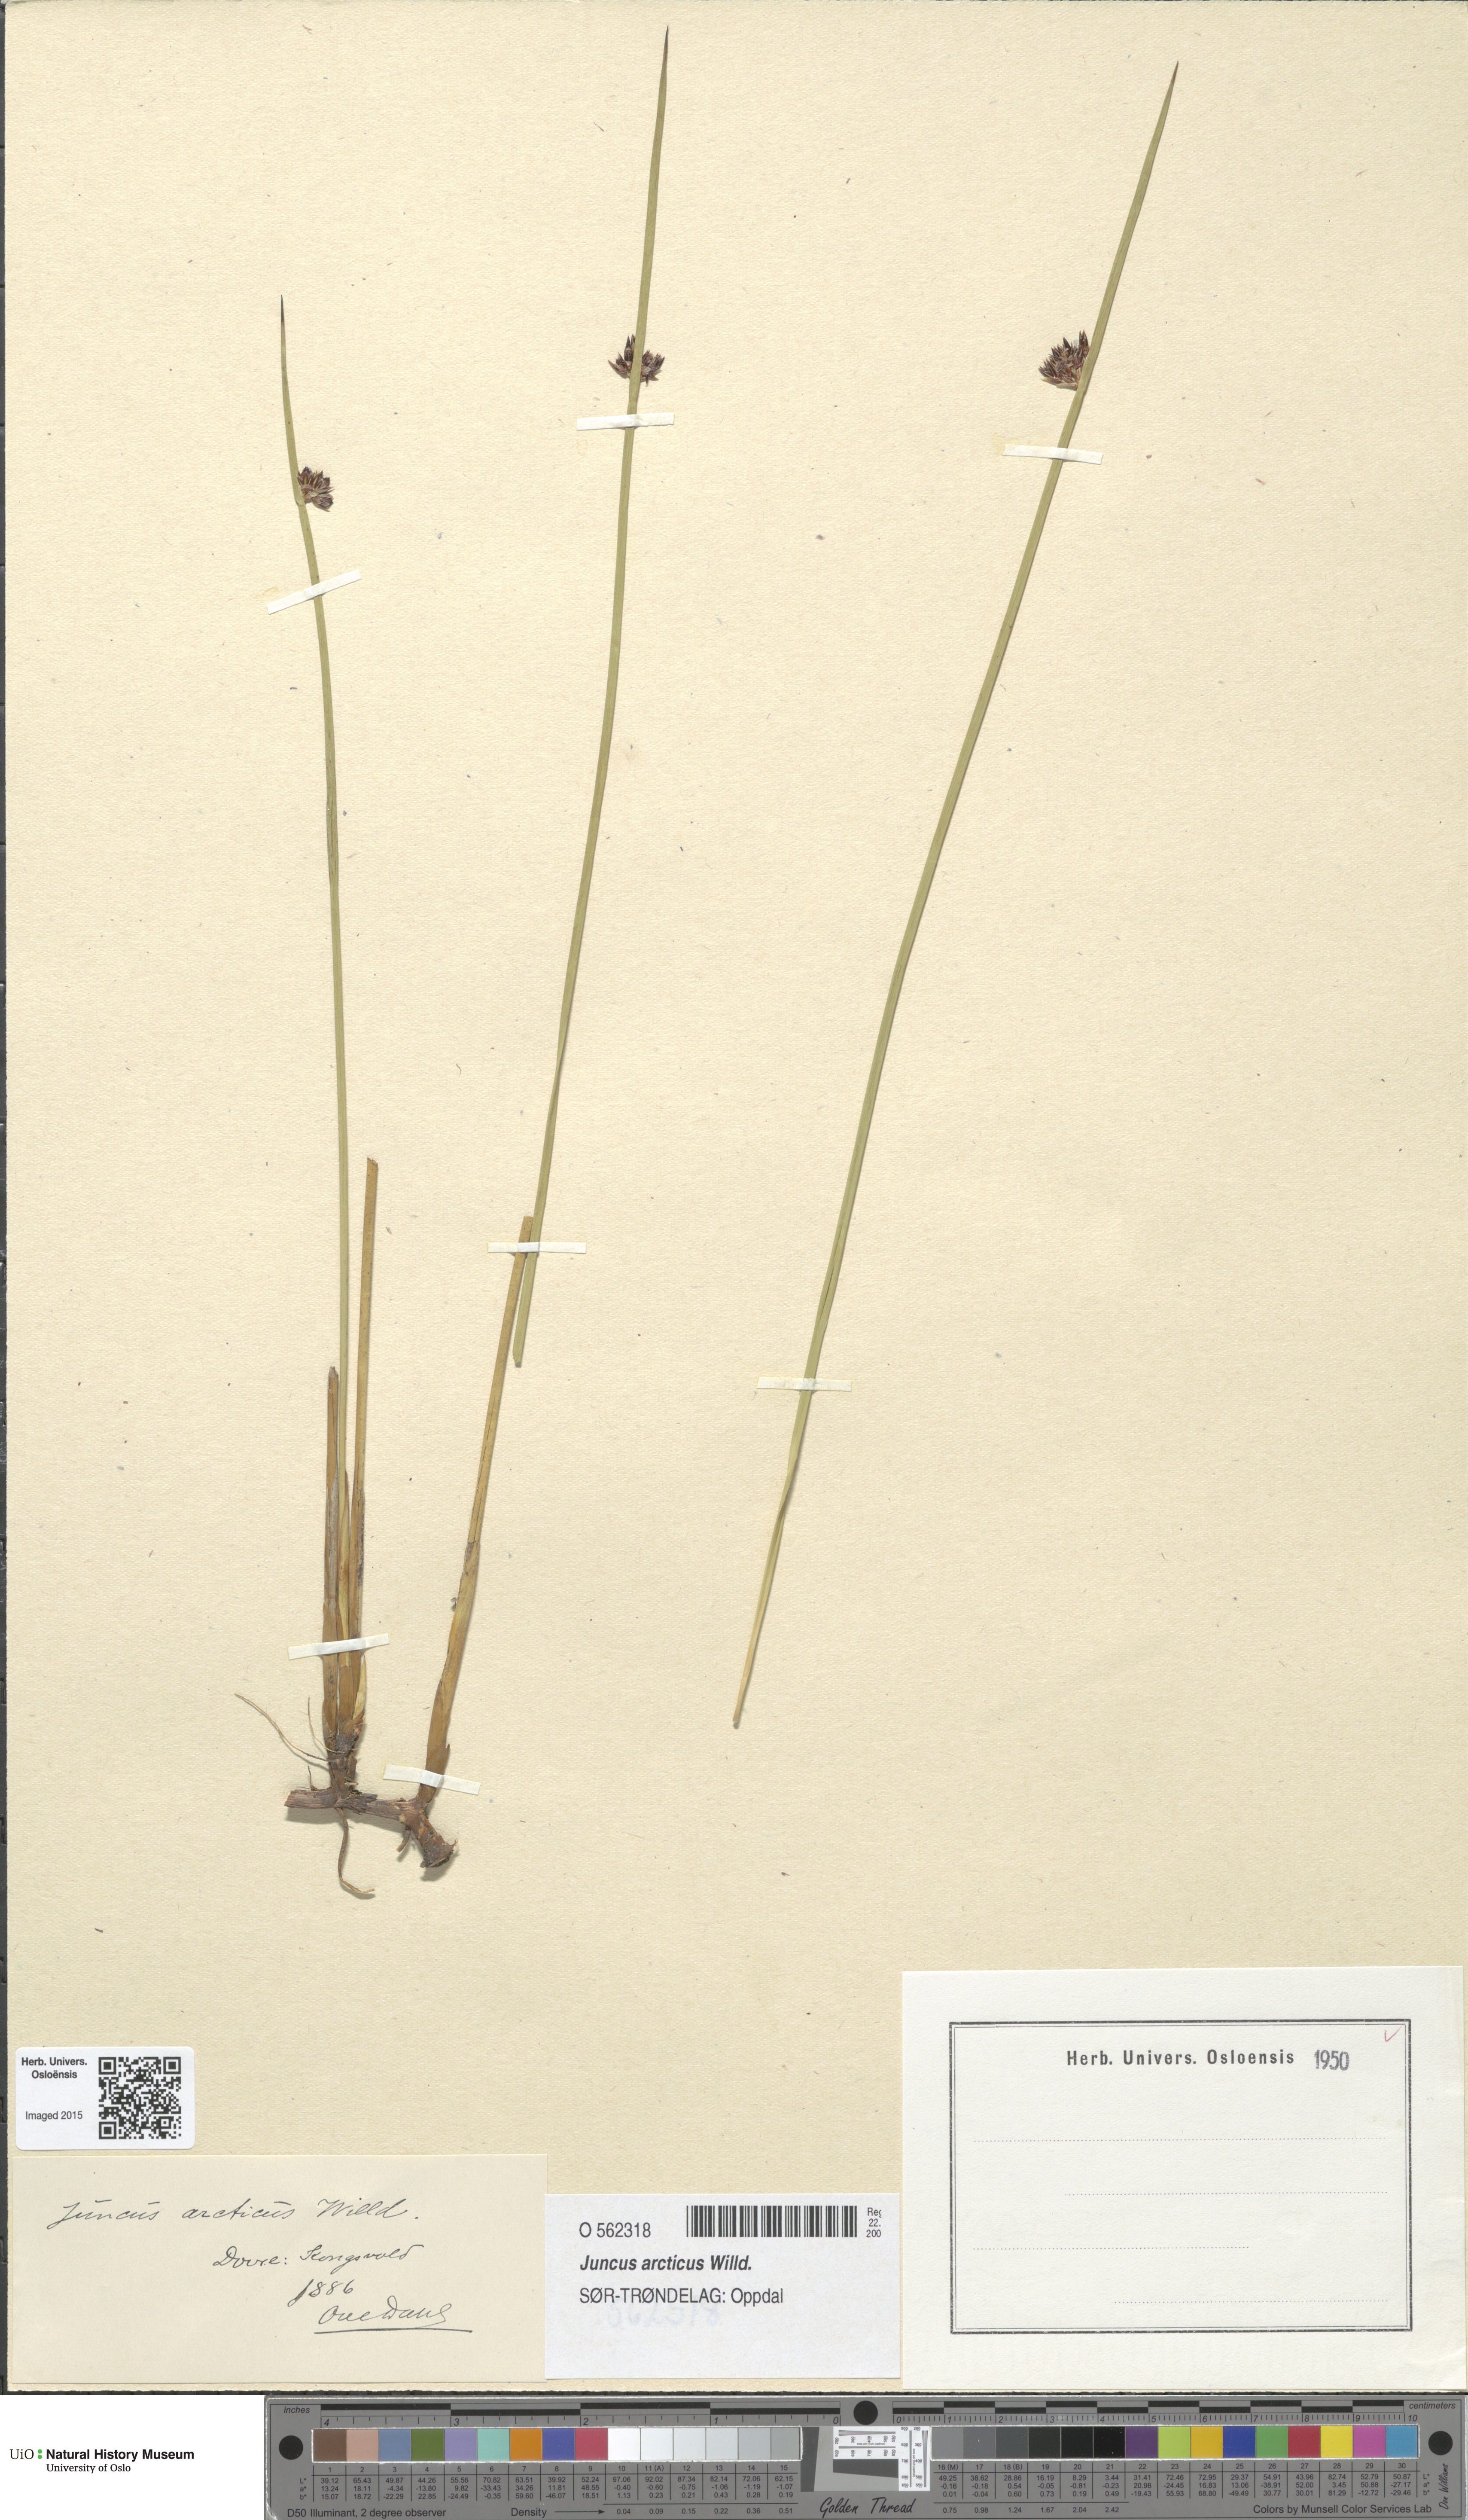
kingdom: Plantae
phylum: Tracheophyta
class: Liliopsida
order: Poales
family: Juncaceae
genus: Juncus
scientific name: Juncus arcticus
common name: Arctic rush
